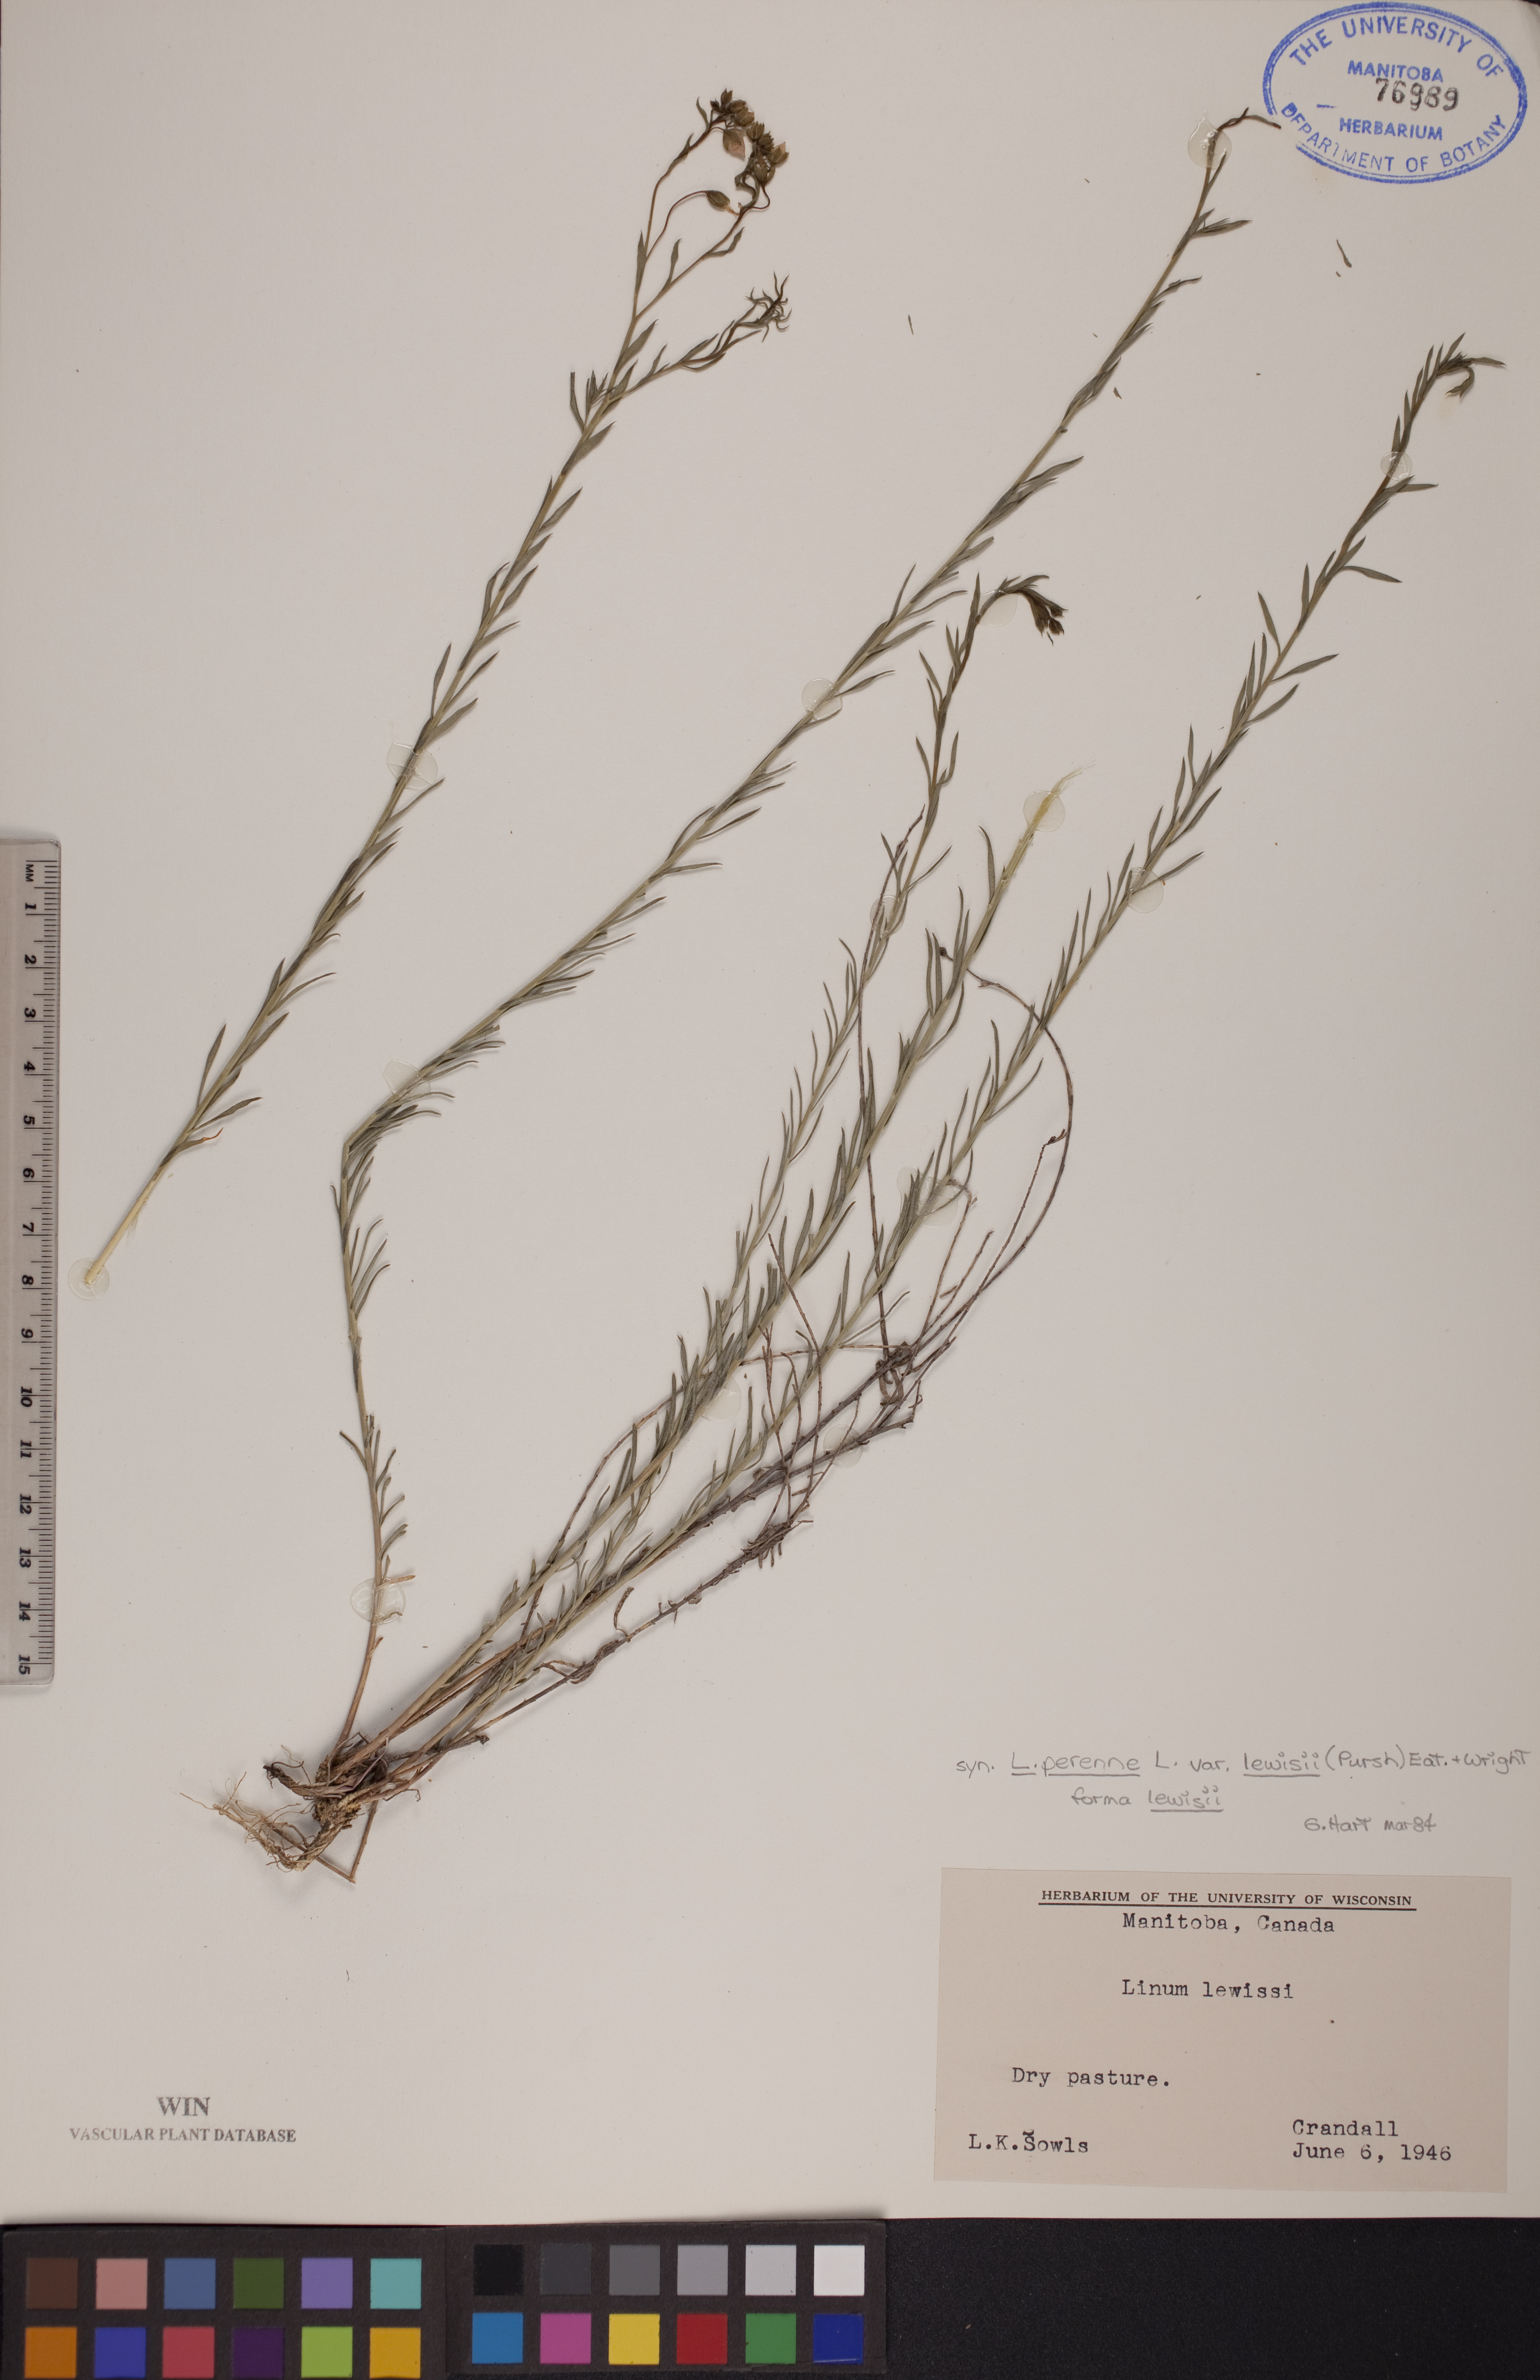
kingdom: Plantae
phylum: Tracheophyta
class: Magnoliopsida
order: Malpighiales
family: Linaceae
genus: Linum
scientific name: Linum lewisii
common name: Prairie flax
